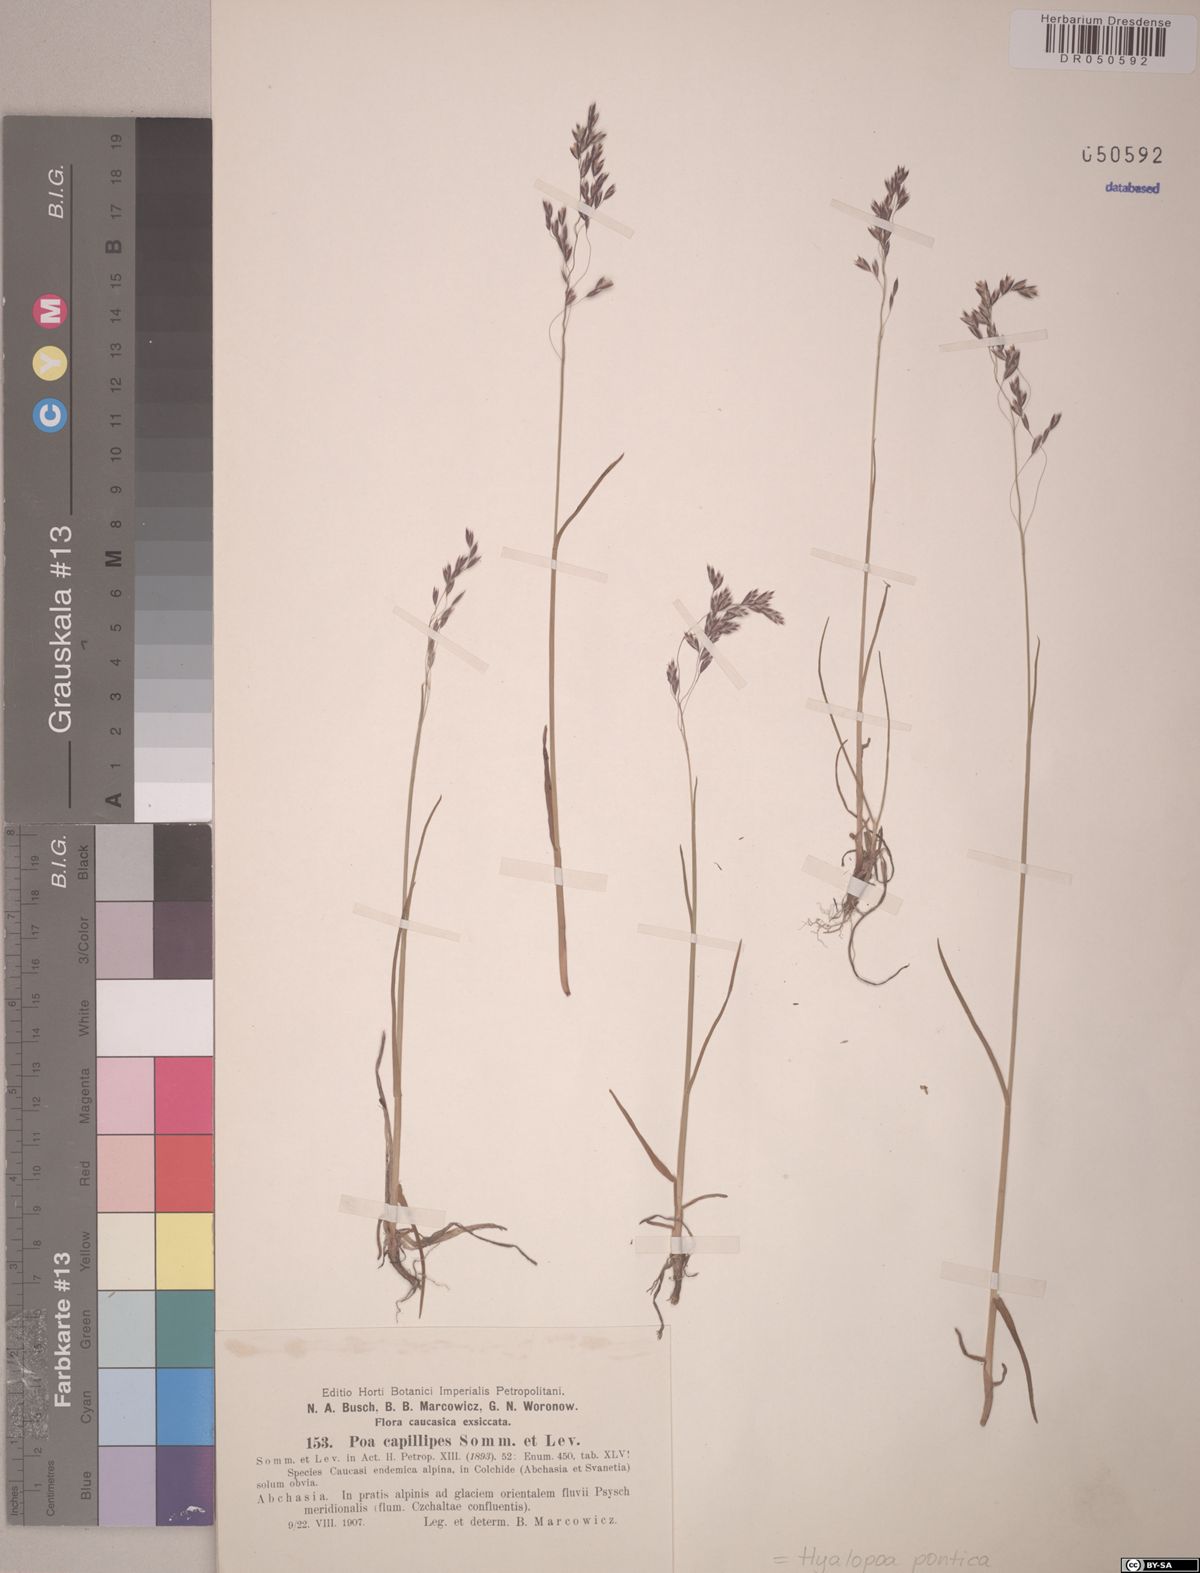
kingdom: Plantae
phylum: Tracheophyta
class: Liliopsida
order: Poales
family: Poaceae
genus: Hyalopoa
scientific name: Hyalopoa pontica
